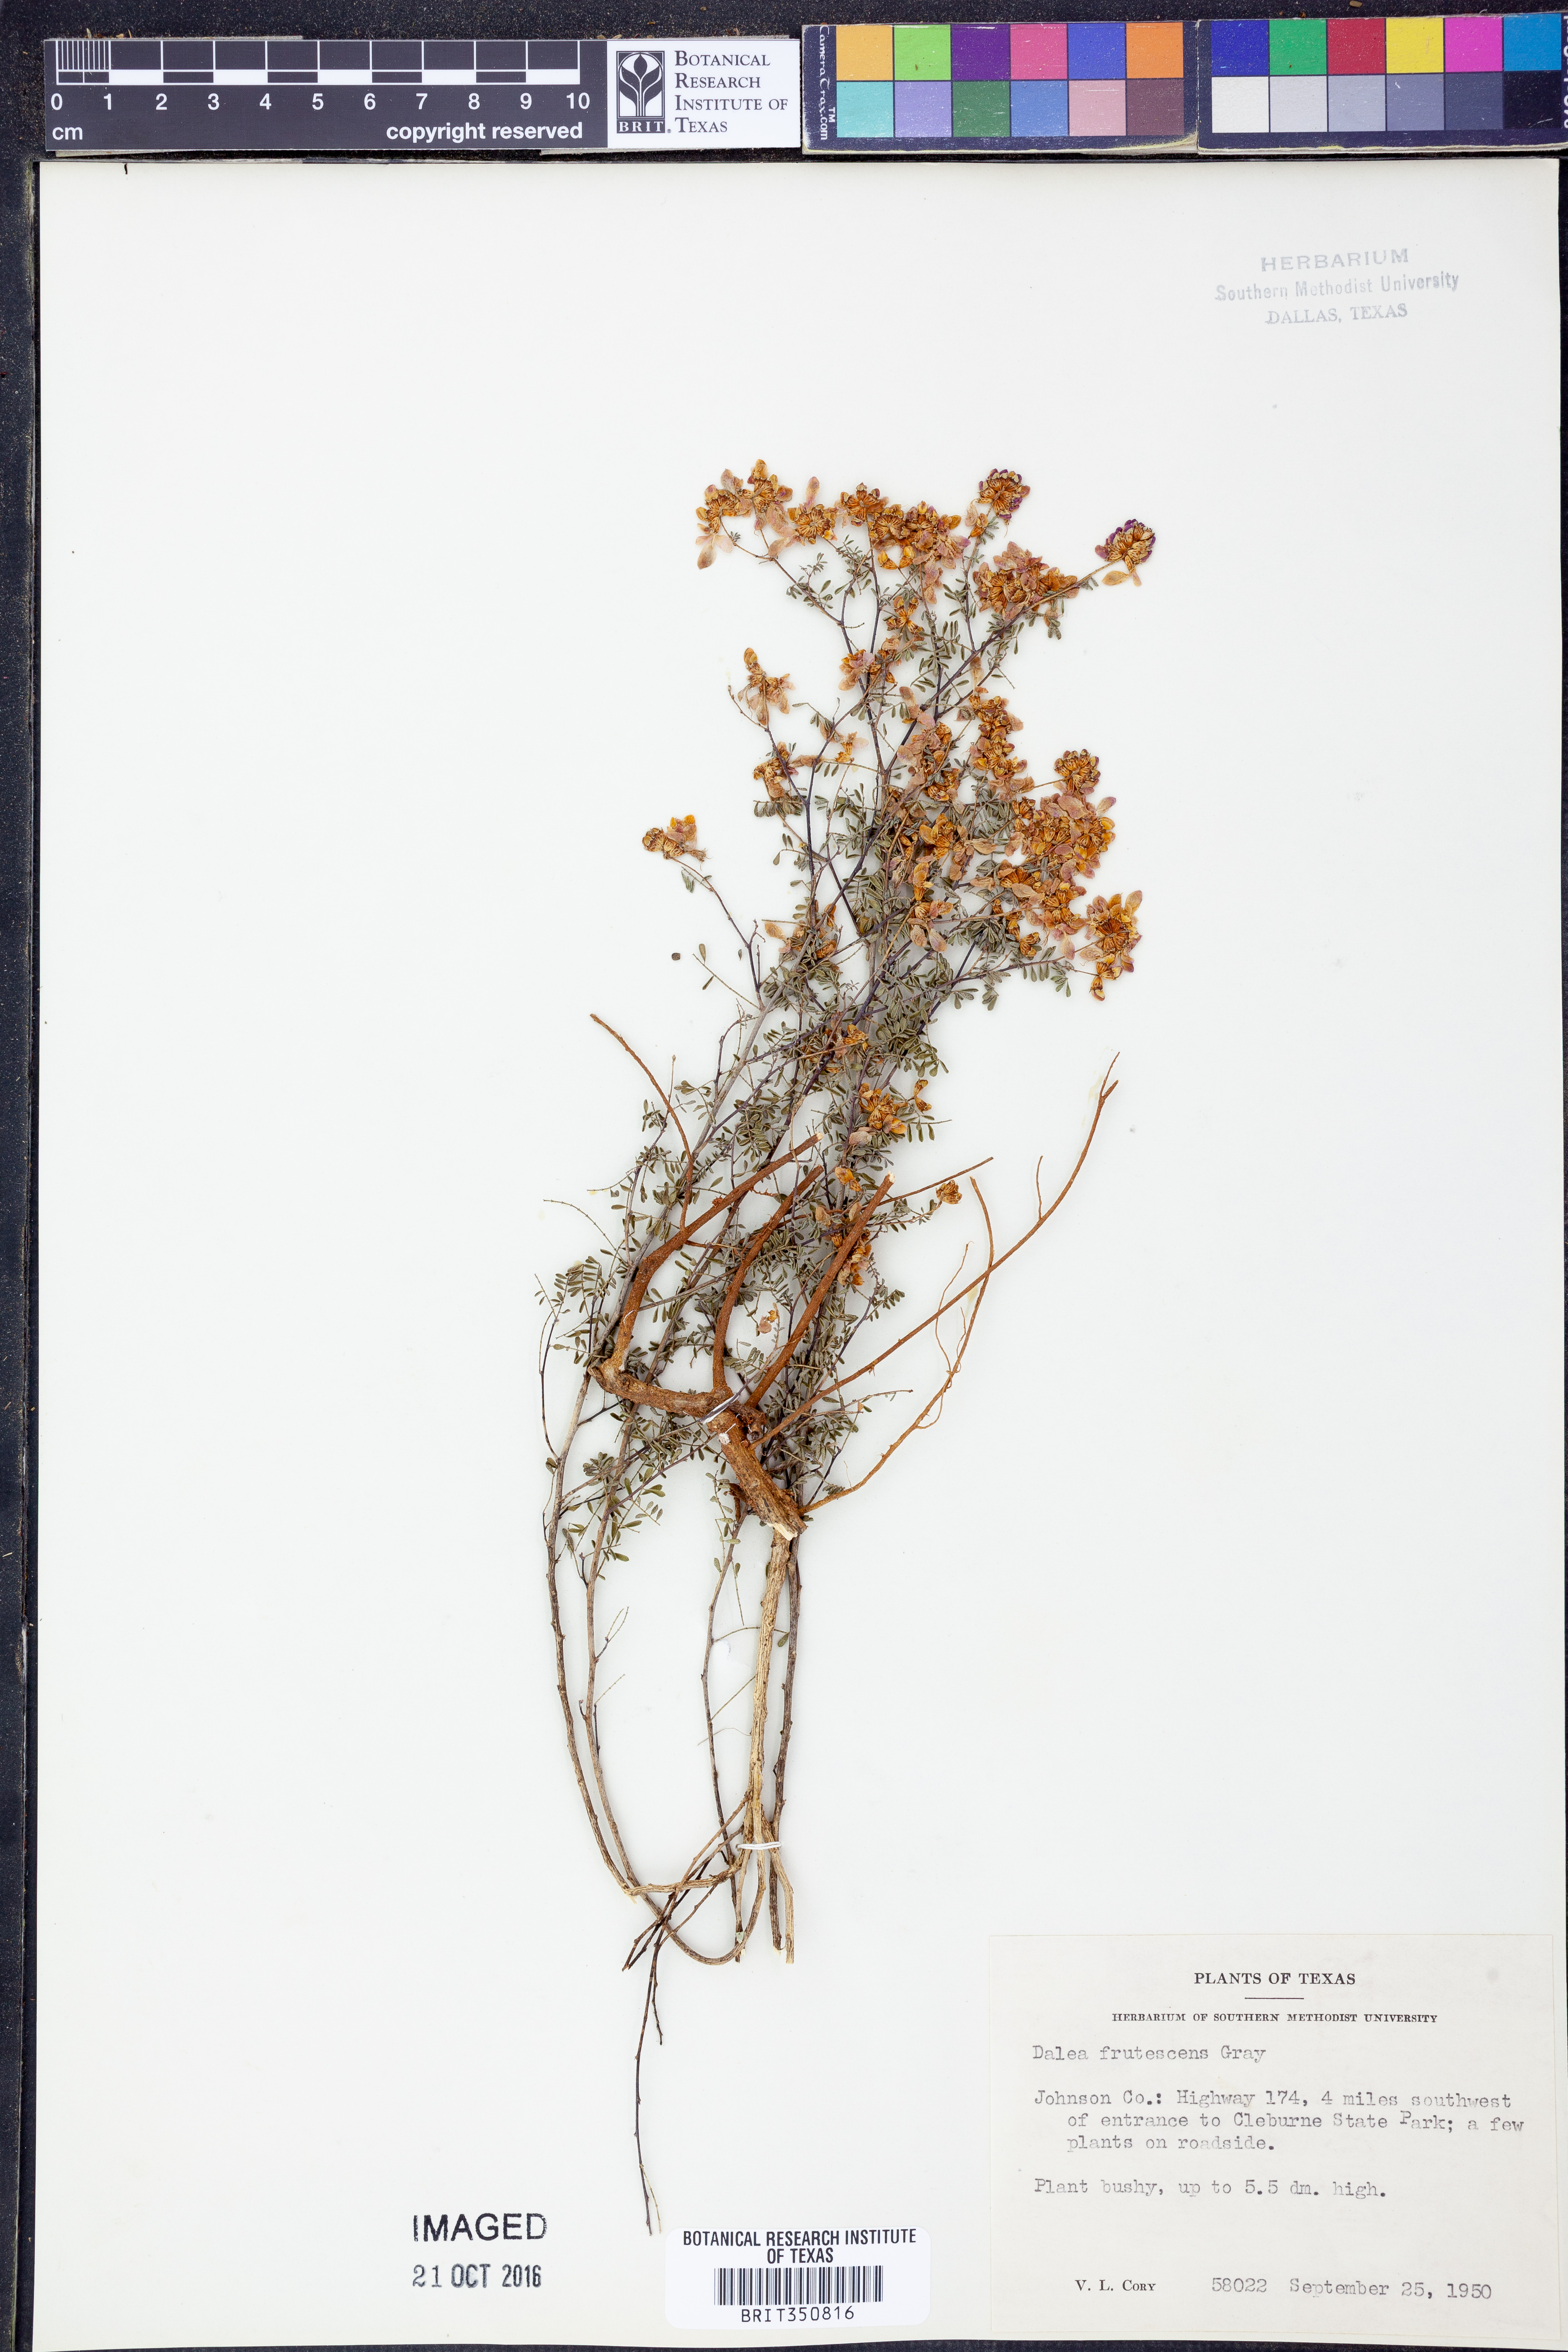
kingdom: Plantae
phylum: Tracheophyta
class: Magnoliopsida
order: Fabales
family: Fabaceae
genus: Dalea
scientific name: Dalea frutescens
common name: Black dalea
